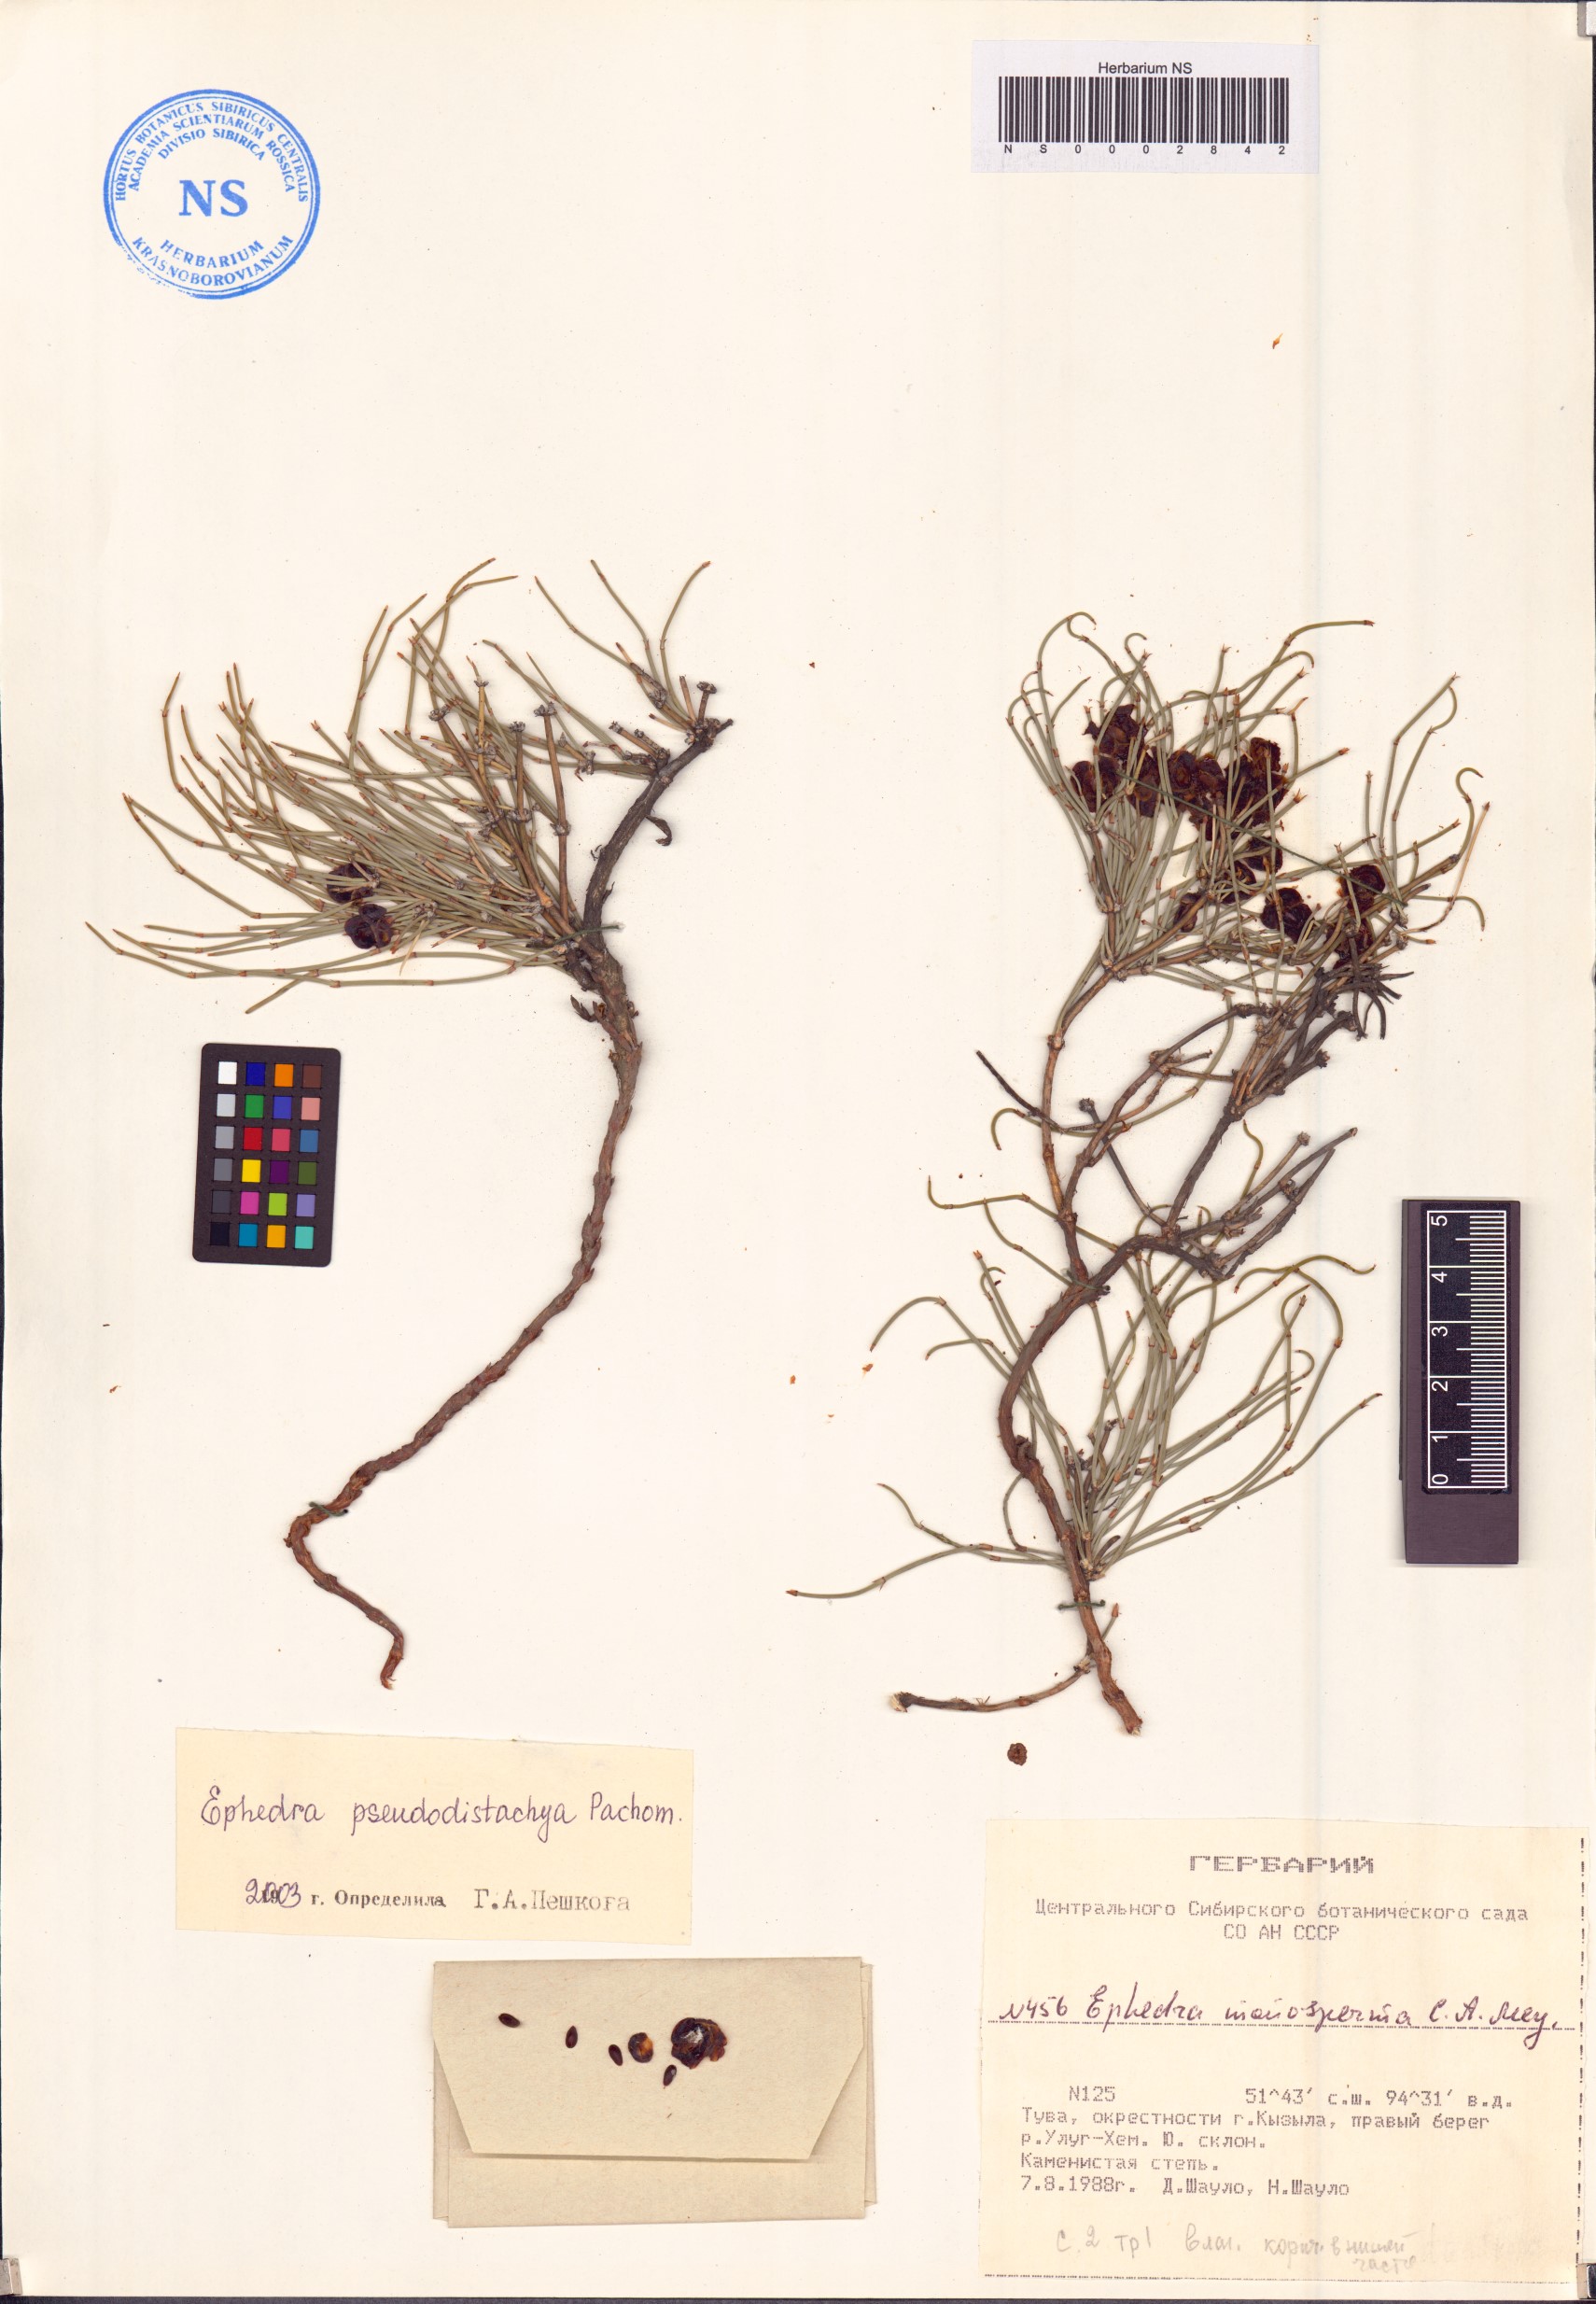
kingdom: Plantae
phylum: Tracheophyta
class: Gnetopsida
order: Ephedrales
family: Ephedraceae
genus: Ephedra
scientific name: Ephedra pseudodistachya
